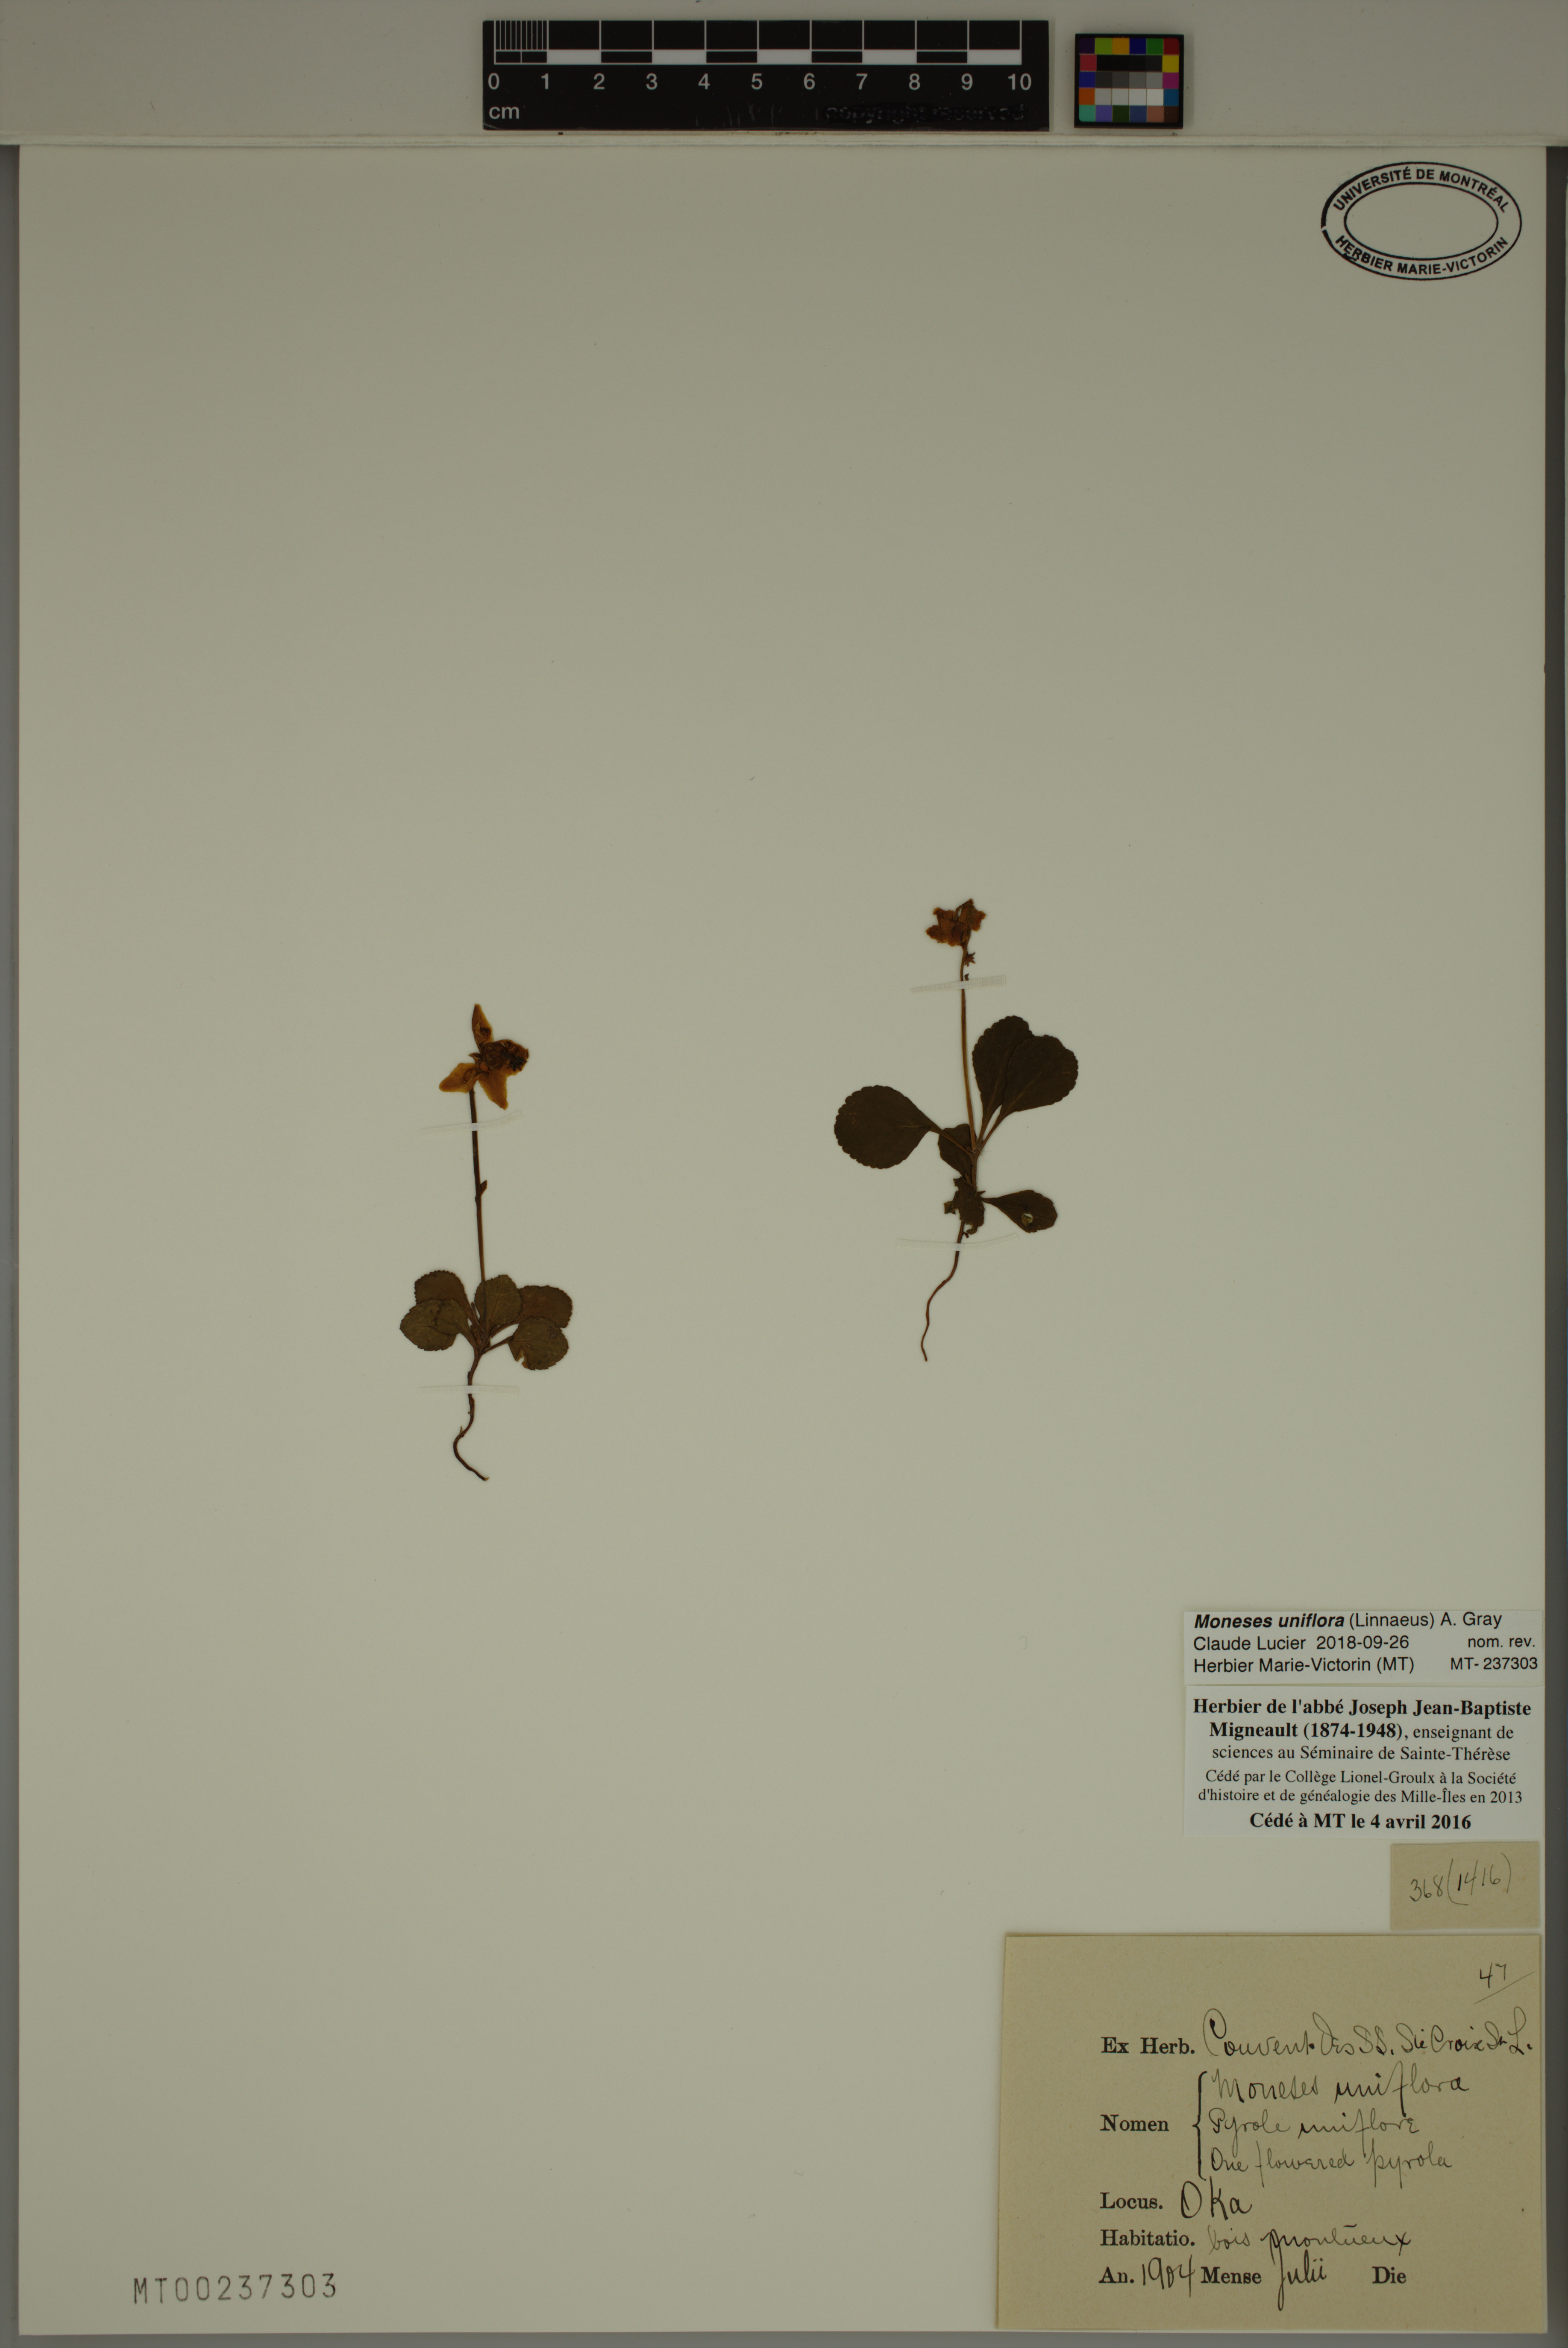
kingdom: Plantae
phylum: Tracheophyta
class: Magnoliopsida
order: Ericales
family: Ericaceae
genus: Moneses
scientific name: Moneses uniflora
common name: One-flowered wintergreen
